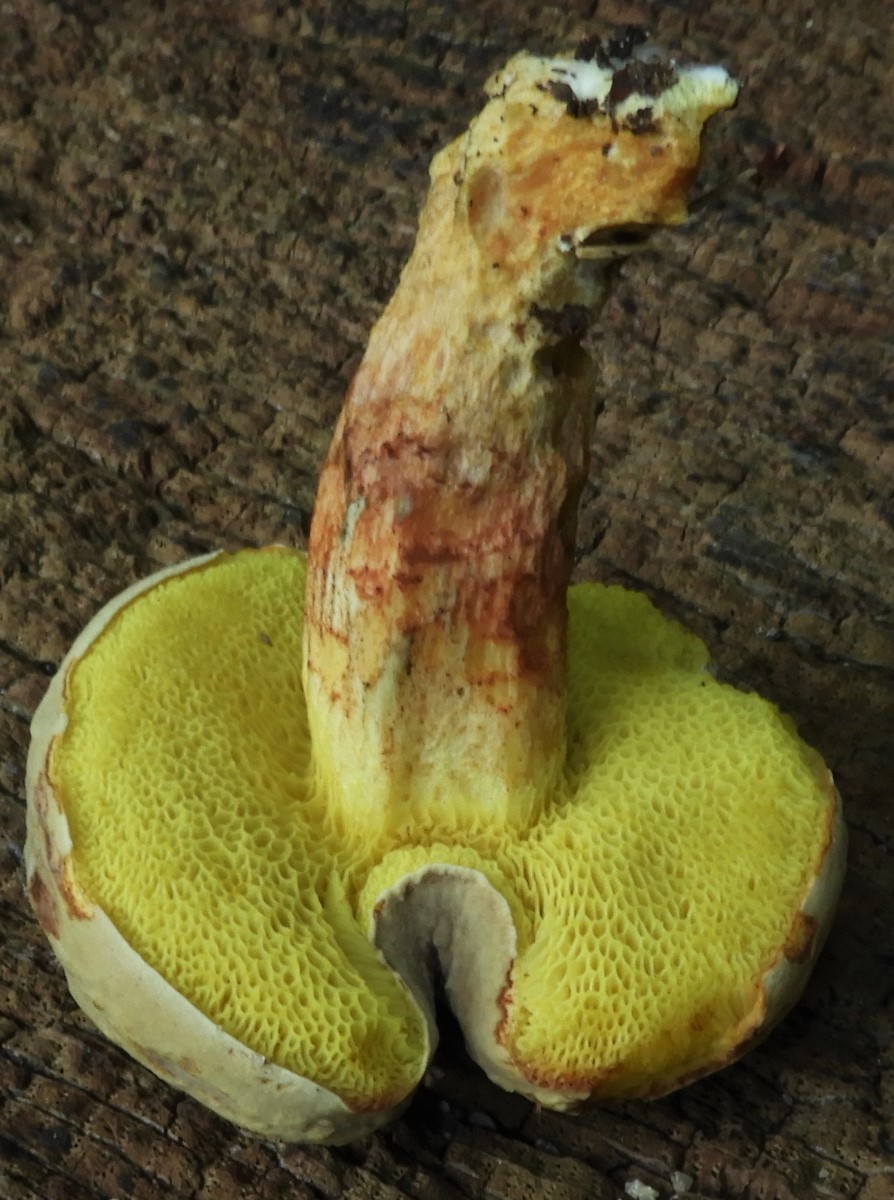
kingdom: Fungi
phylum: Basidiomycota
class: Agaricomycetes
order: Boletales
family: Boletaceae
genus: Xerocomus
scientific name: Xerocomus subtomentosus
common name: filtet rørhat
